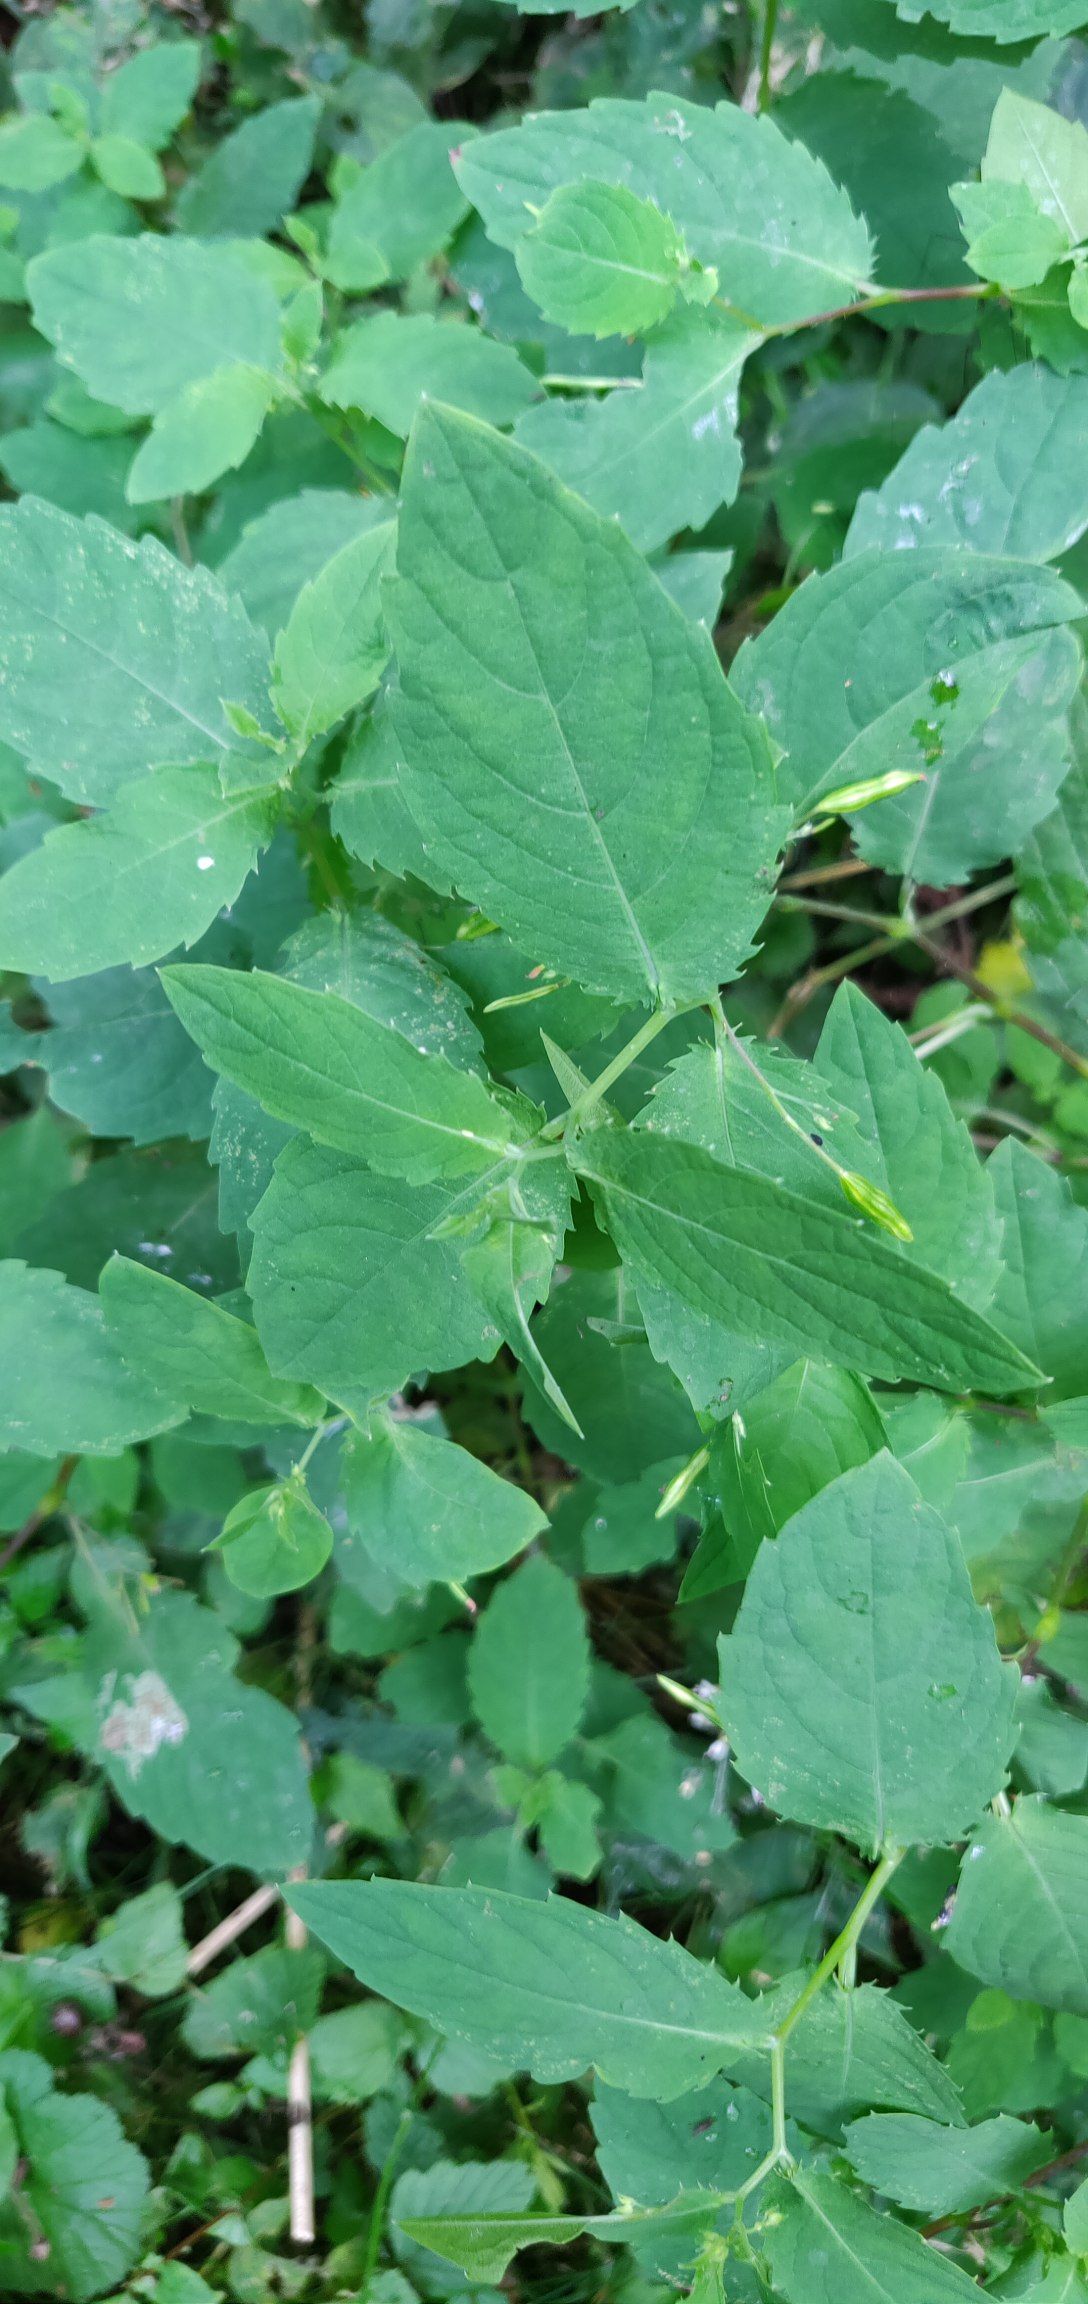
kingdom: Plantae
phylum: Tracheophyta
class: Magnoliopsida
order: Ericales
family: Balsaminaceae
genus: Impatiens
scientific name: Impatiens noli-tangere
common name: Spring-balsamin
